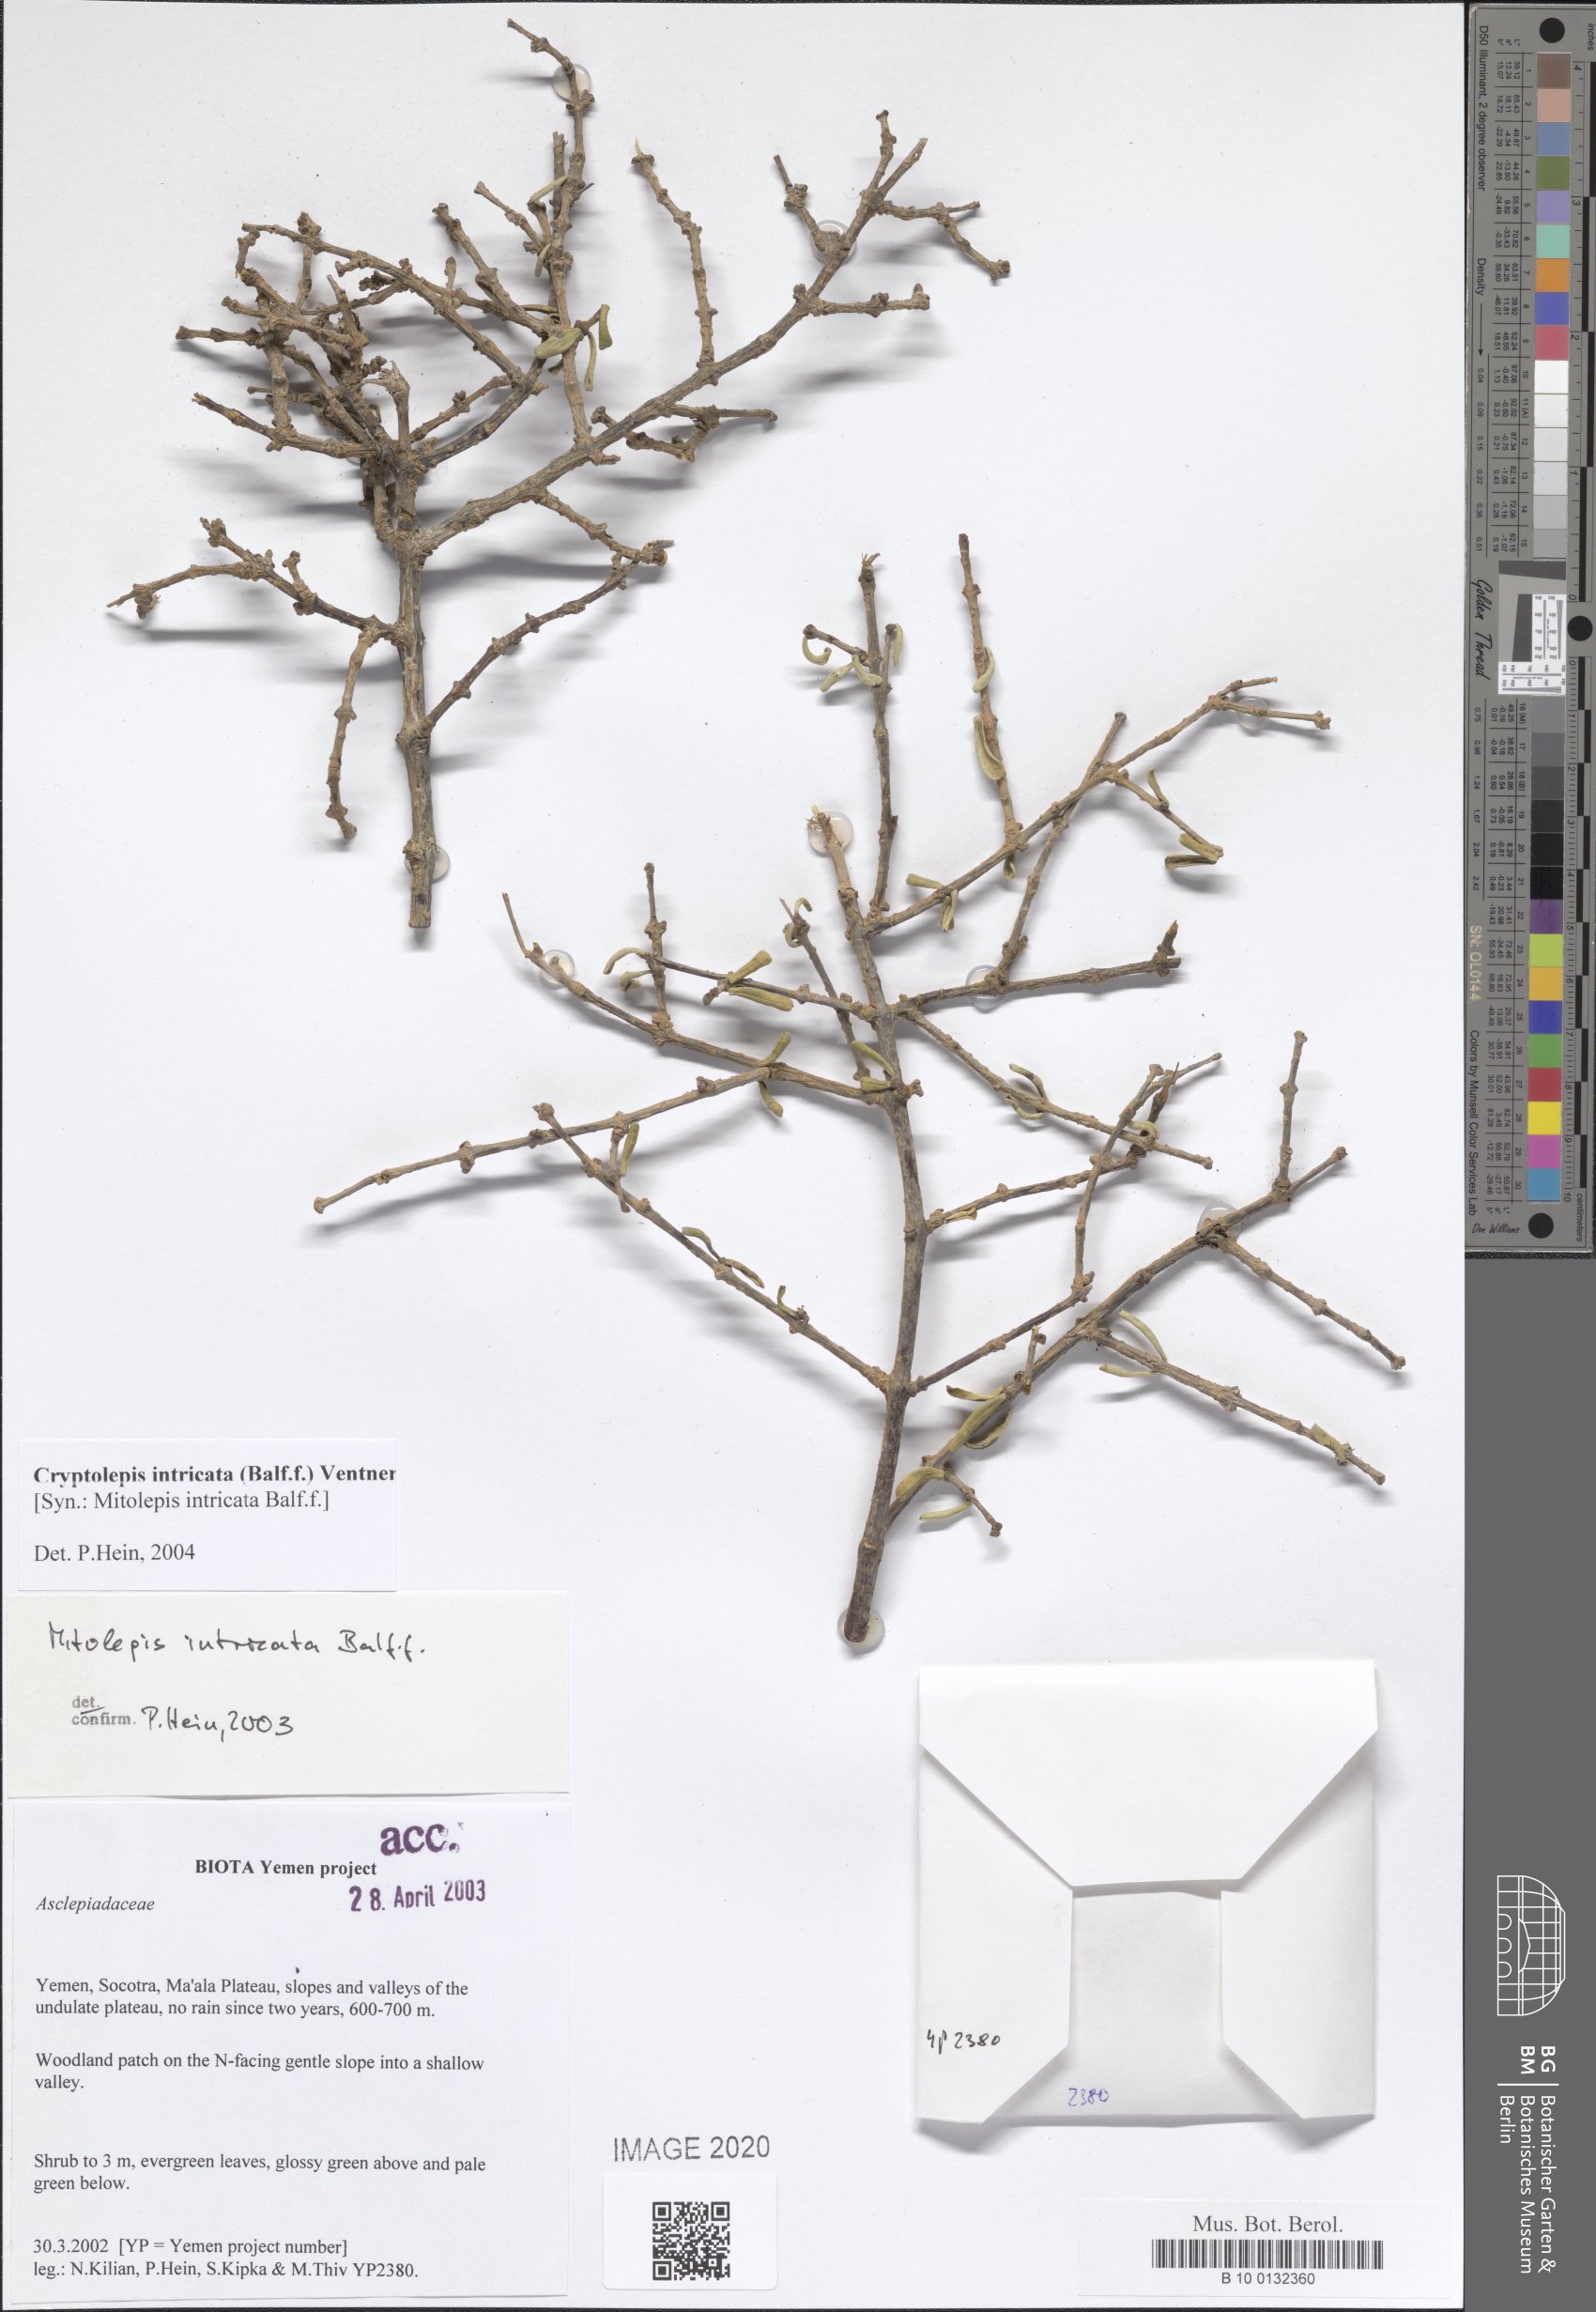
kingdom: Plantae
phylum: Tracheophyta
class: Magnoliopsida
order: Gentianales
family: Apocynaceae
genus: Cryptolepis
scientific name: Cryptolepis intricata
